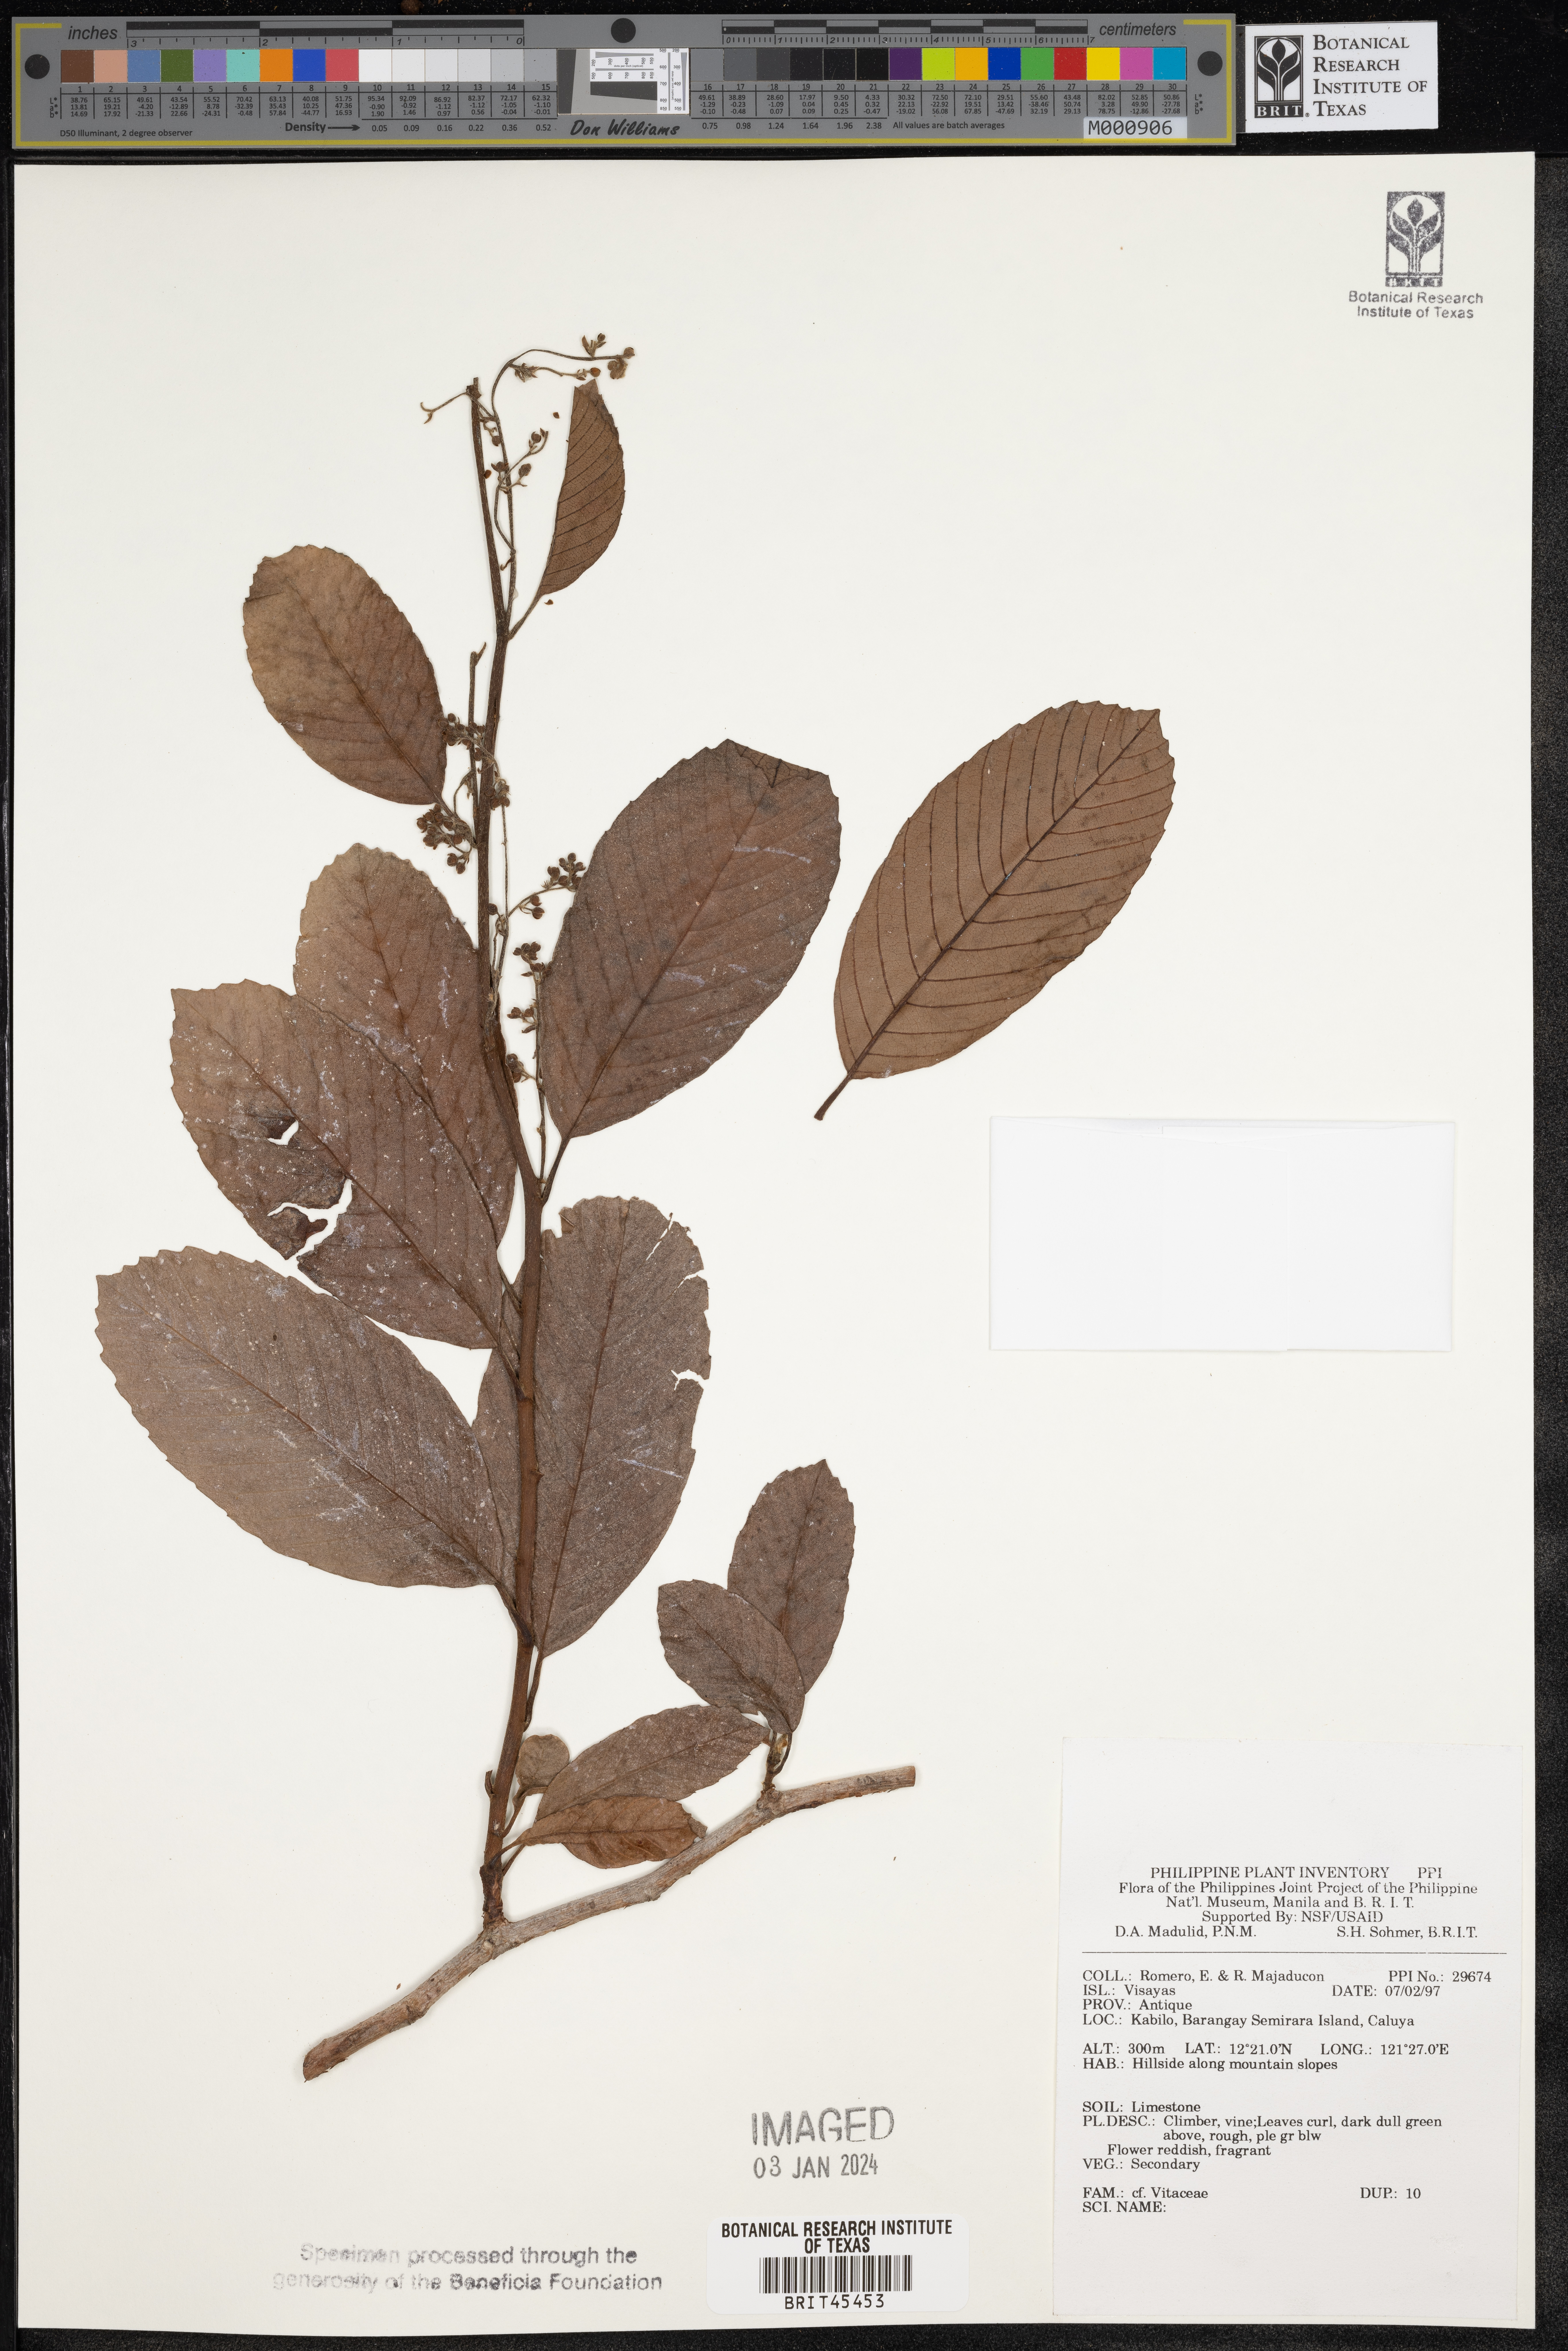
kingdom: Plantae
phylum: Tracheophyta
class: Magnoliopsida
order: Vitales
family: Vitaceae
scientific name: Vitaceae
